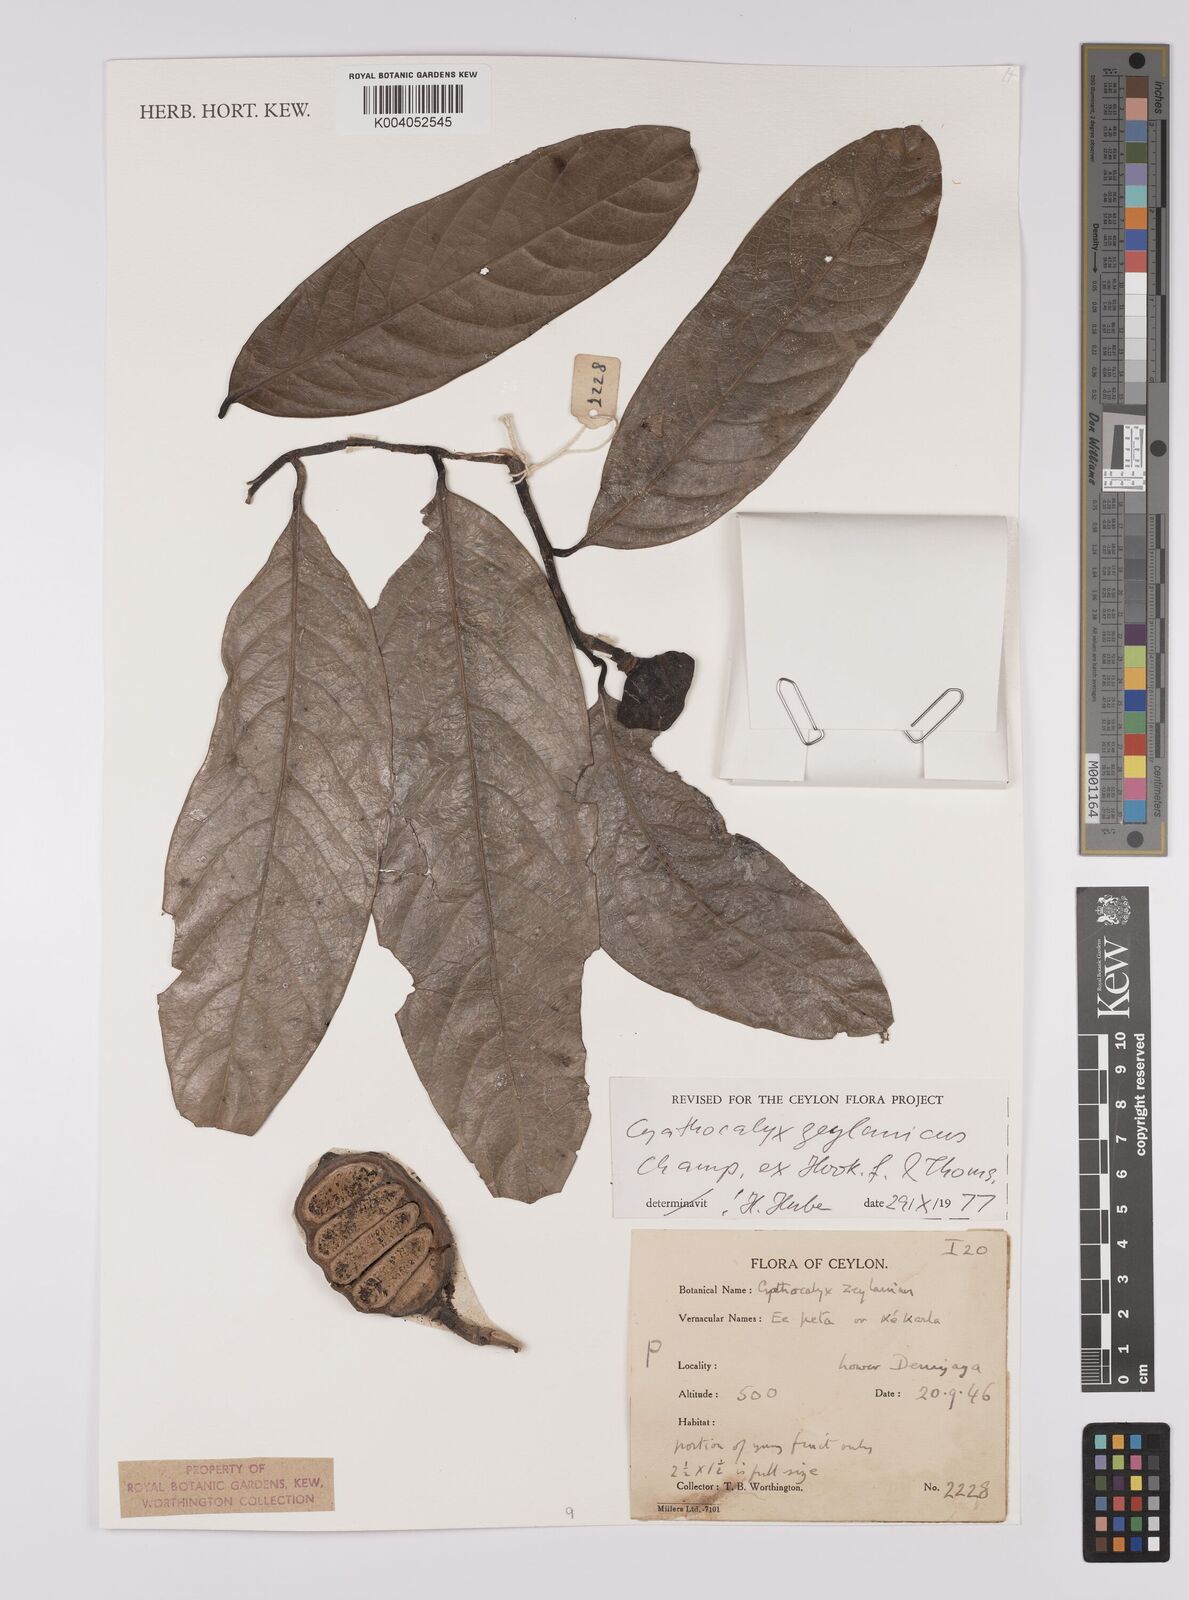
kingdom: Plantae
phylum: Tracheophyta
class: Magnoliopsida
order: Magnoliales
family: Annonaceae
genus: Cyathocalyx
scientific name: Cyathocalyx zeylanicus
